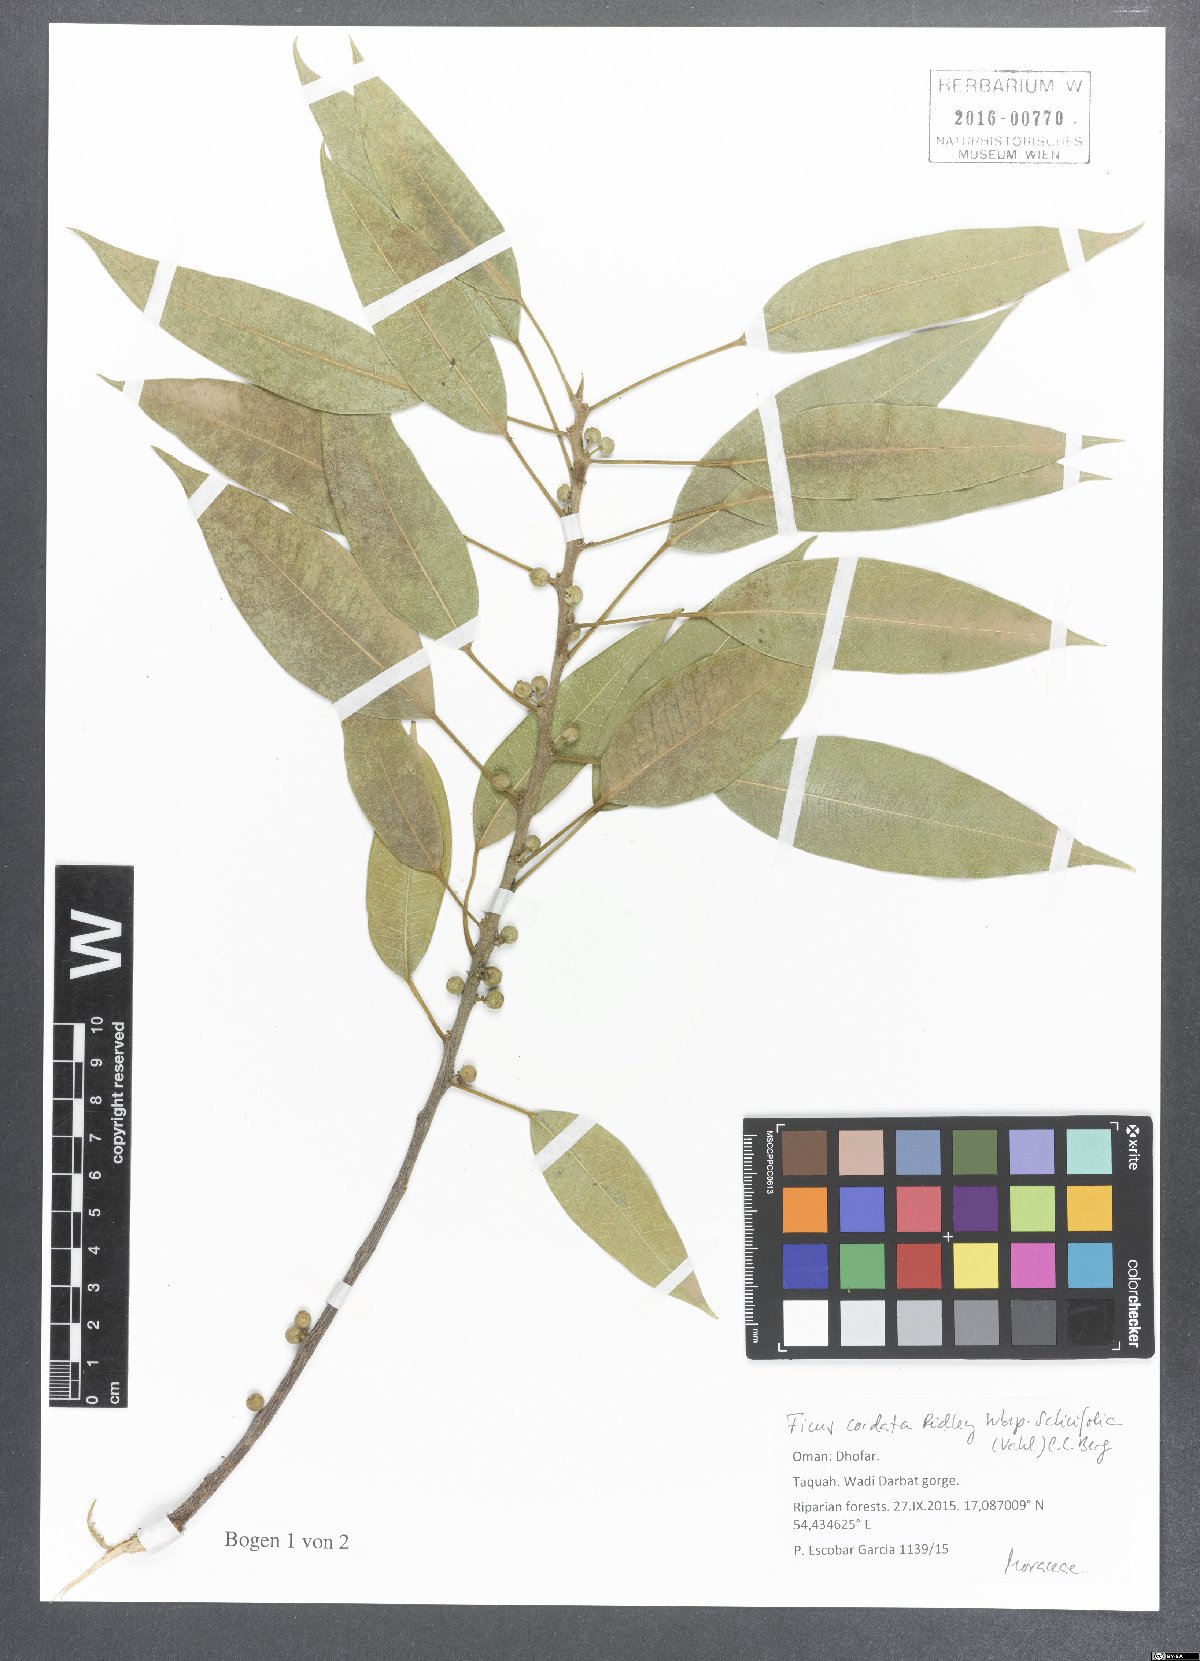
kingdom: Plantae
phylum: Tracheophyta
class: Magnoliopsida
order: Rosales
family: Moraceae
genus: Ficus
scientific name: Ficus cordata
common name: Namaqua rock fig
